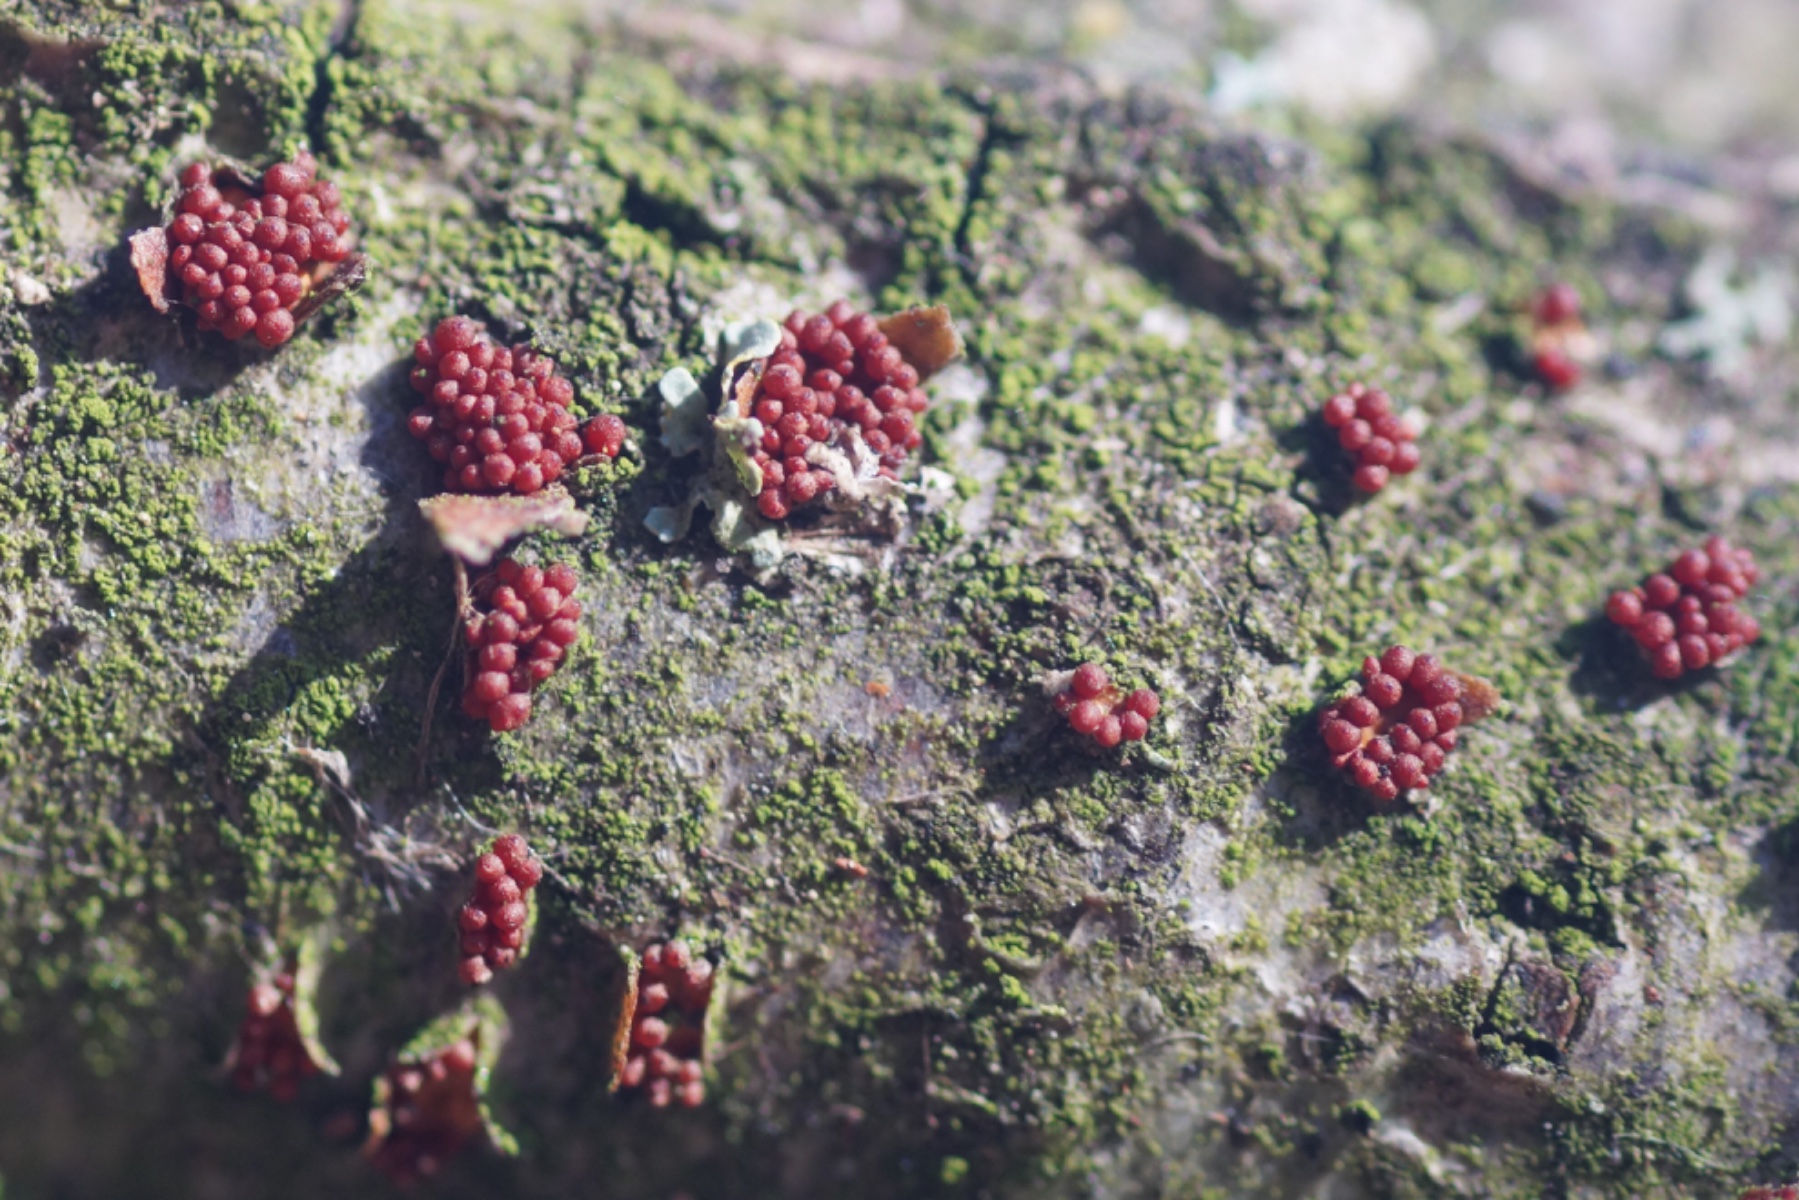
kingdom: Fungi
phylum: Ascomycota
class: Sordariomycetes
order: Hypocreales
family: Nectriaceae
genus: Neonectria
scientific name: Neonectria coccinea
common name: bøgebark-cinnobersvamp
